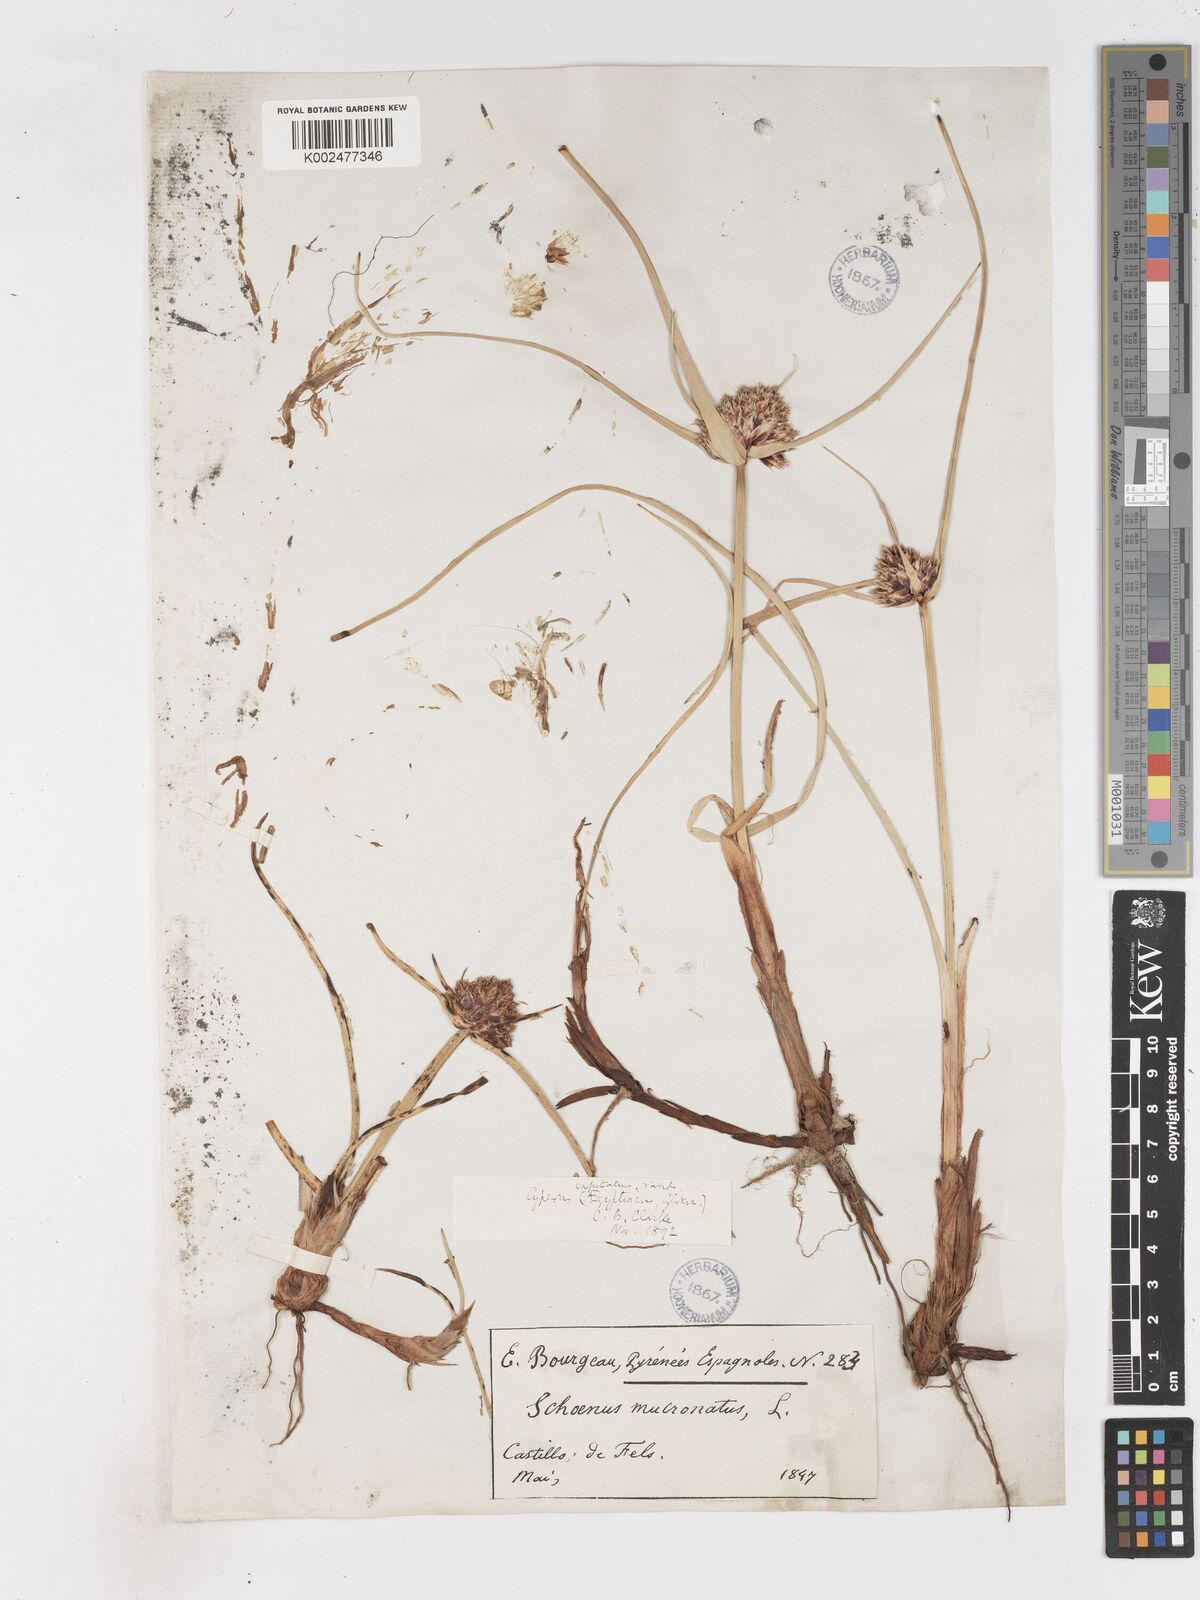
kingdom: Plantae
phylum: Tracheophyta
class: Liliopsida
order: Poales
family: Cyperaceae
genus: Cyperus
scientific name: Cyperus capitatus
